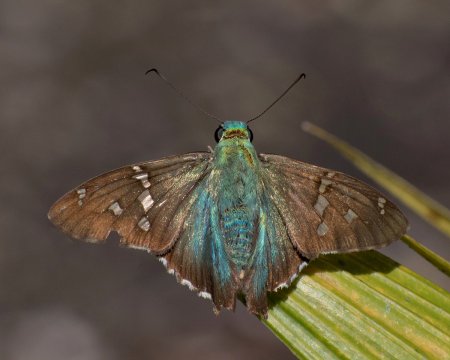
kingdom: Animalia
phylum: Arthropoda
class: Insecta
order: Lepidoptera
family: Hesperiidae
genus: Urbanus
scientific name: Urbanus viterboana
